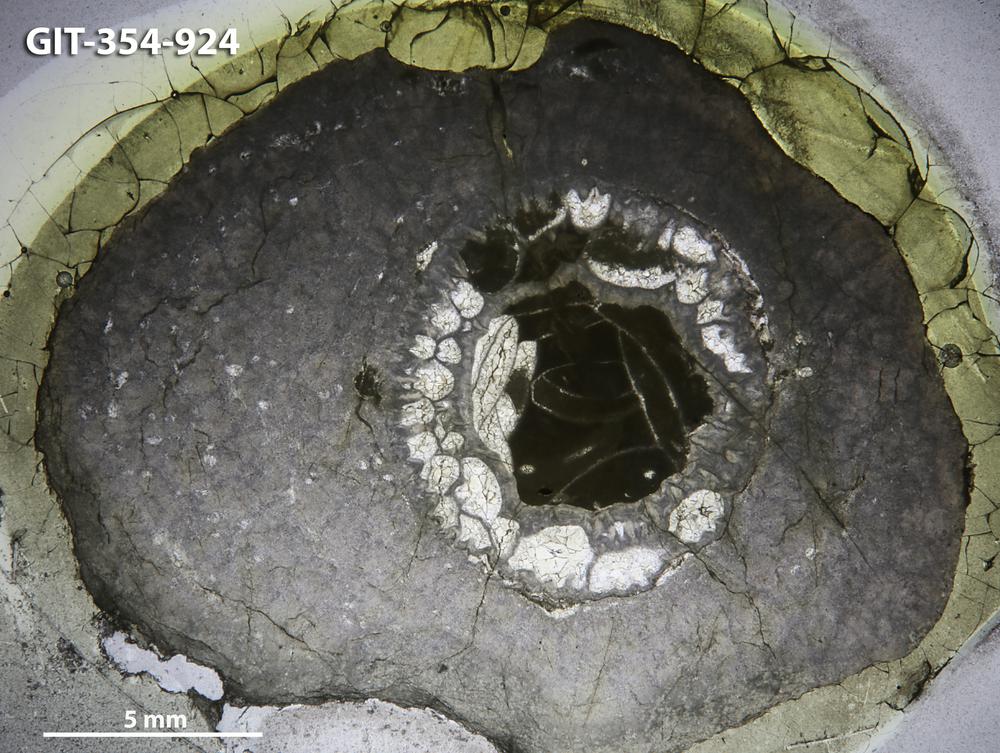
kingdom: Animalia
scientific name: Animalia
